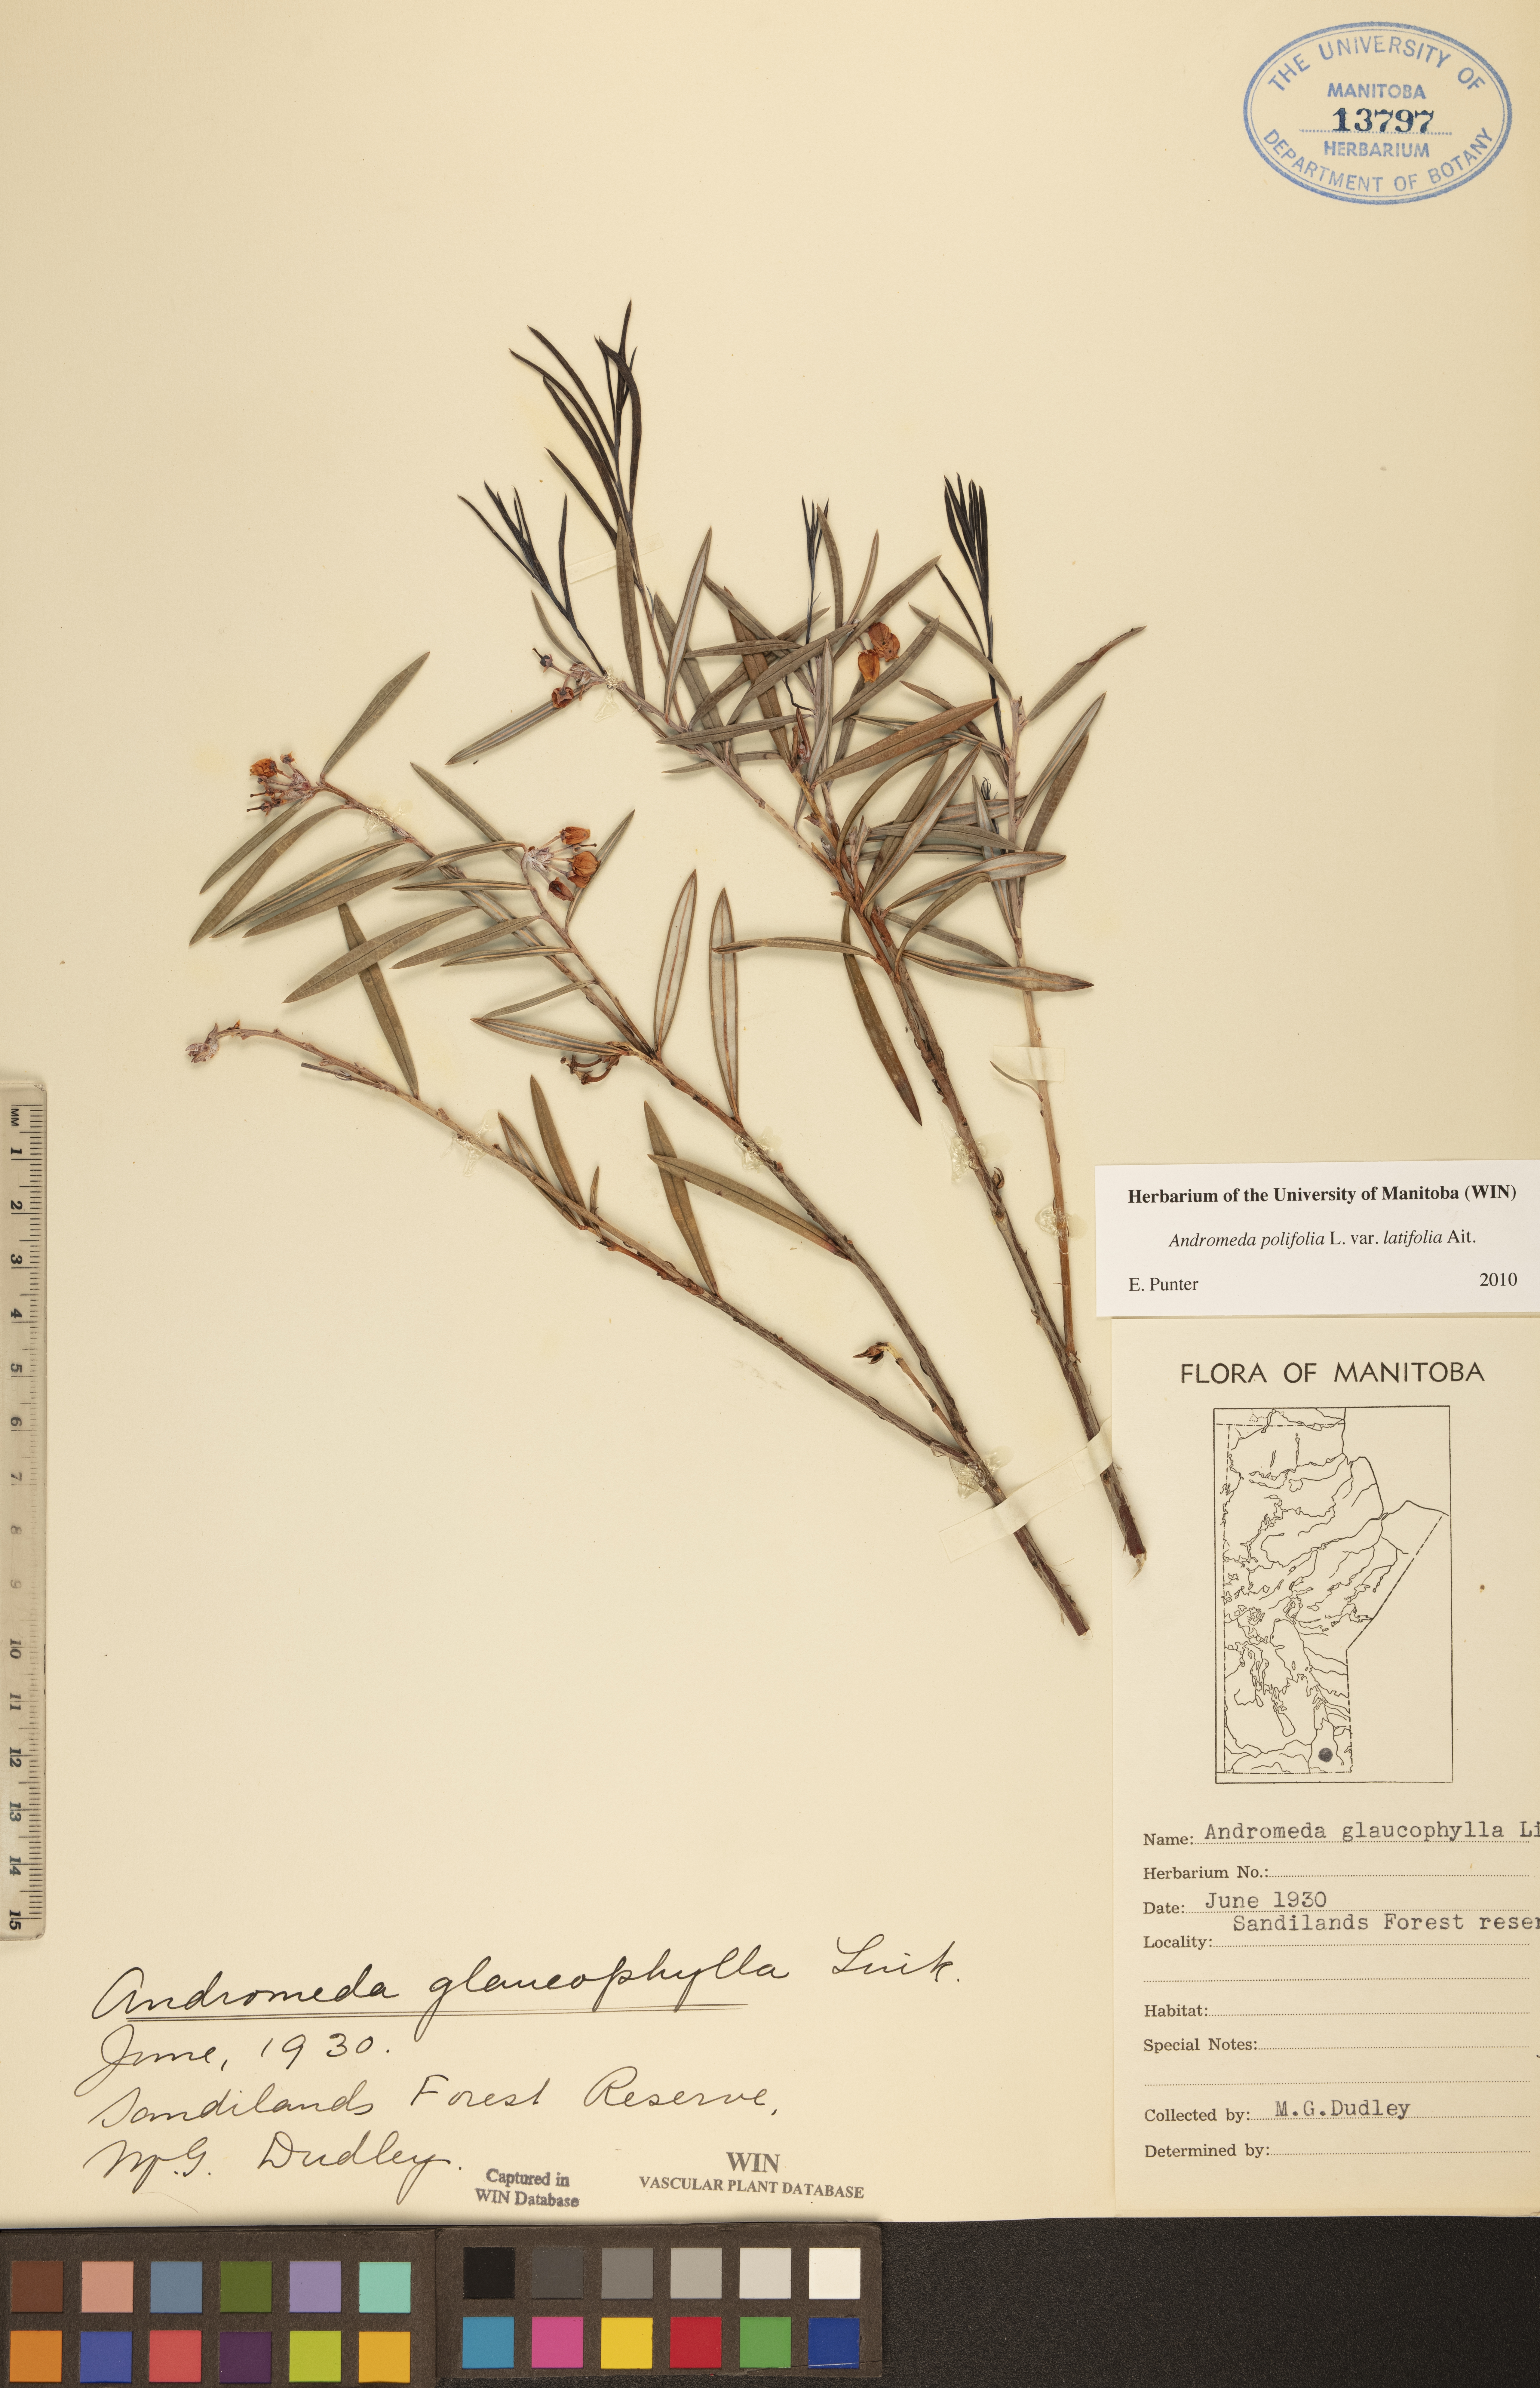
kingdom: Plantae
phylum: Tracheophyta
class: Magnoliopsida
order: Ericales
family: Ericaceae
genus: Andromeda
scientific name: Andromeda polifolia
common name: Bog-rosemary
